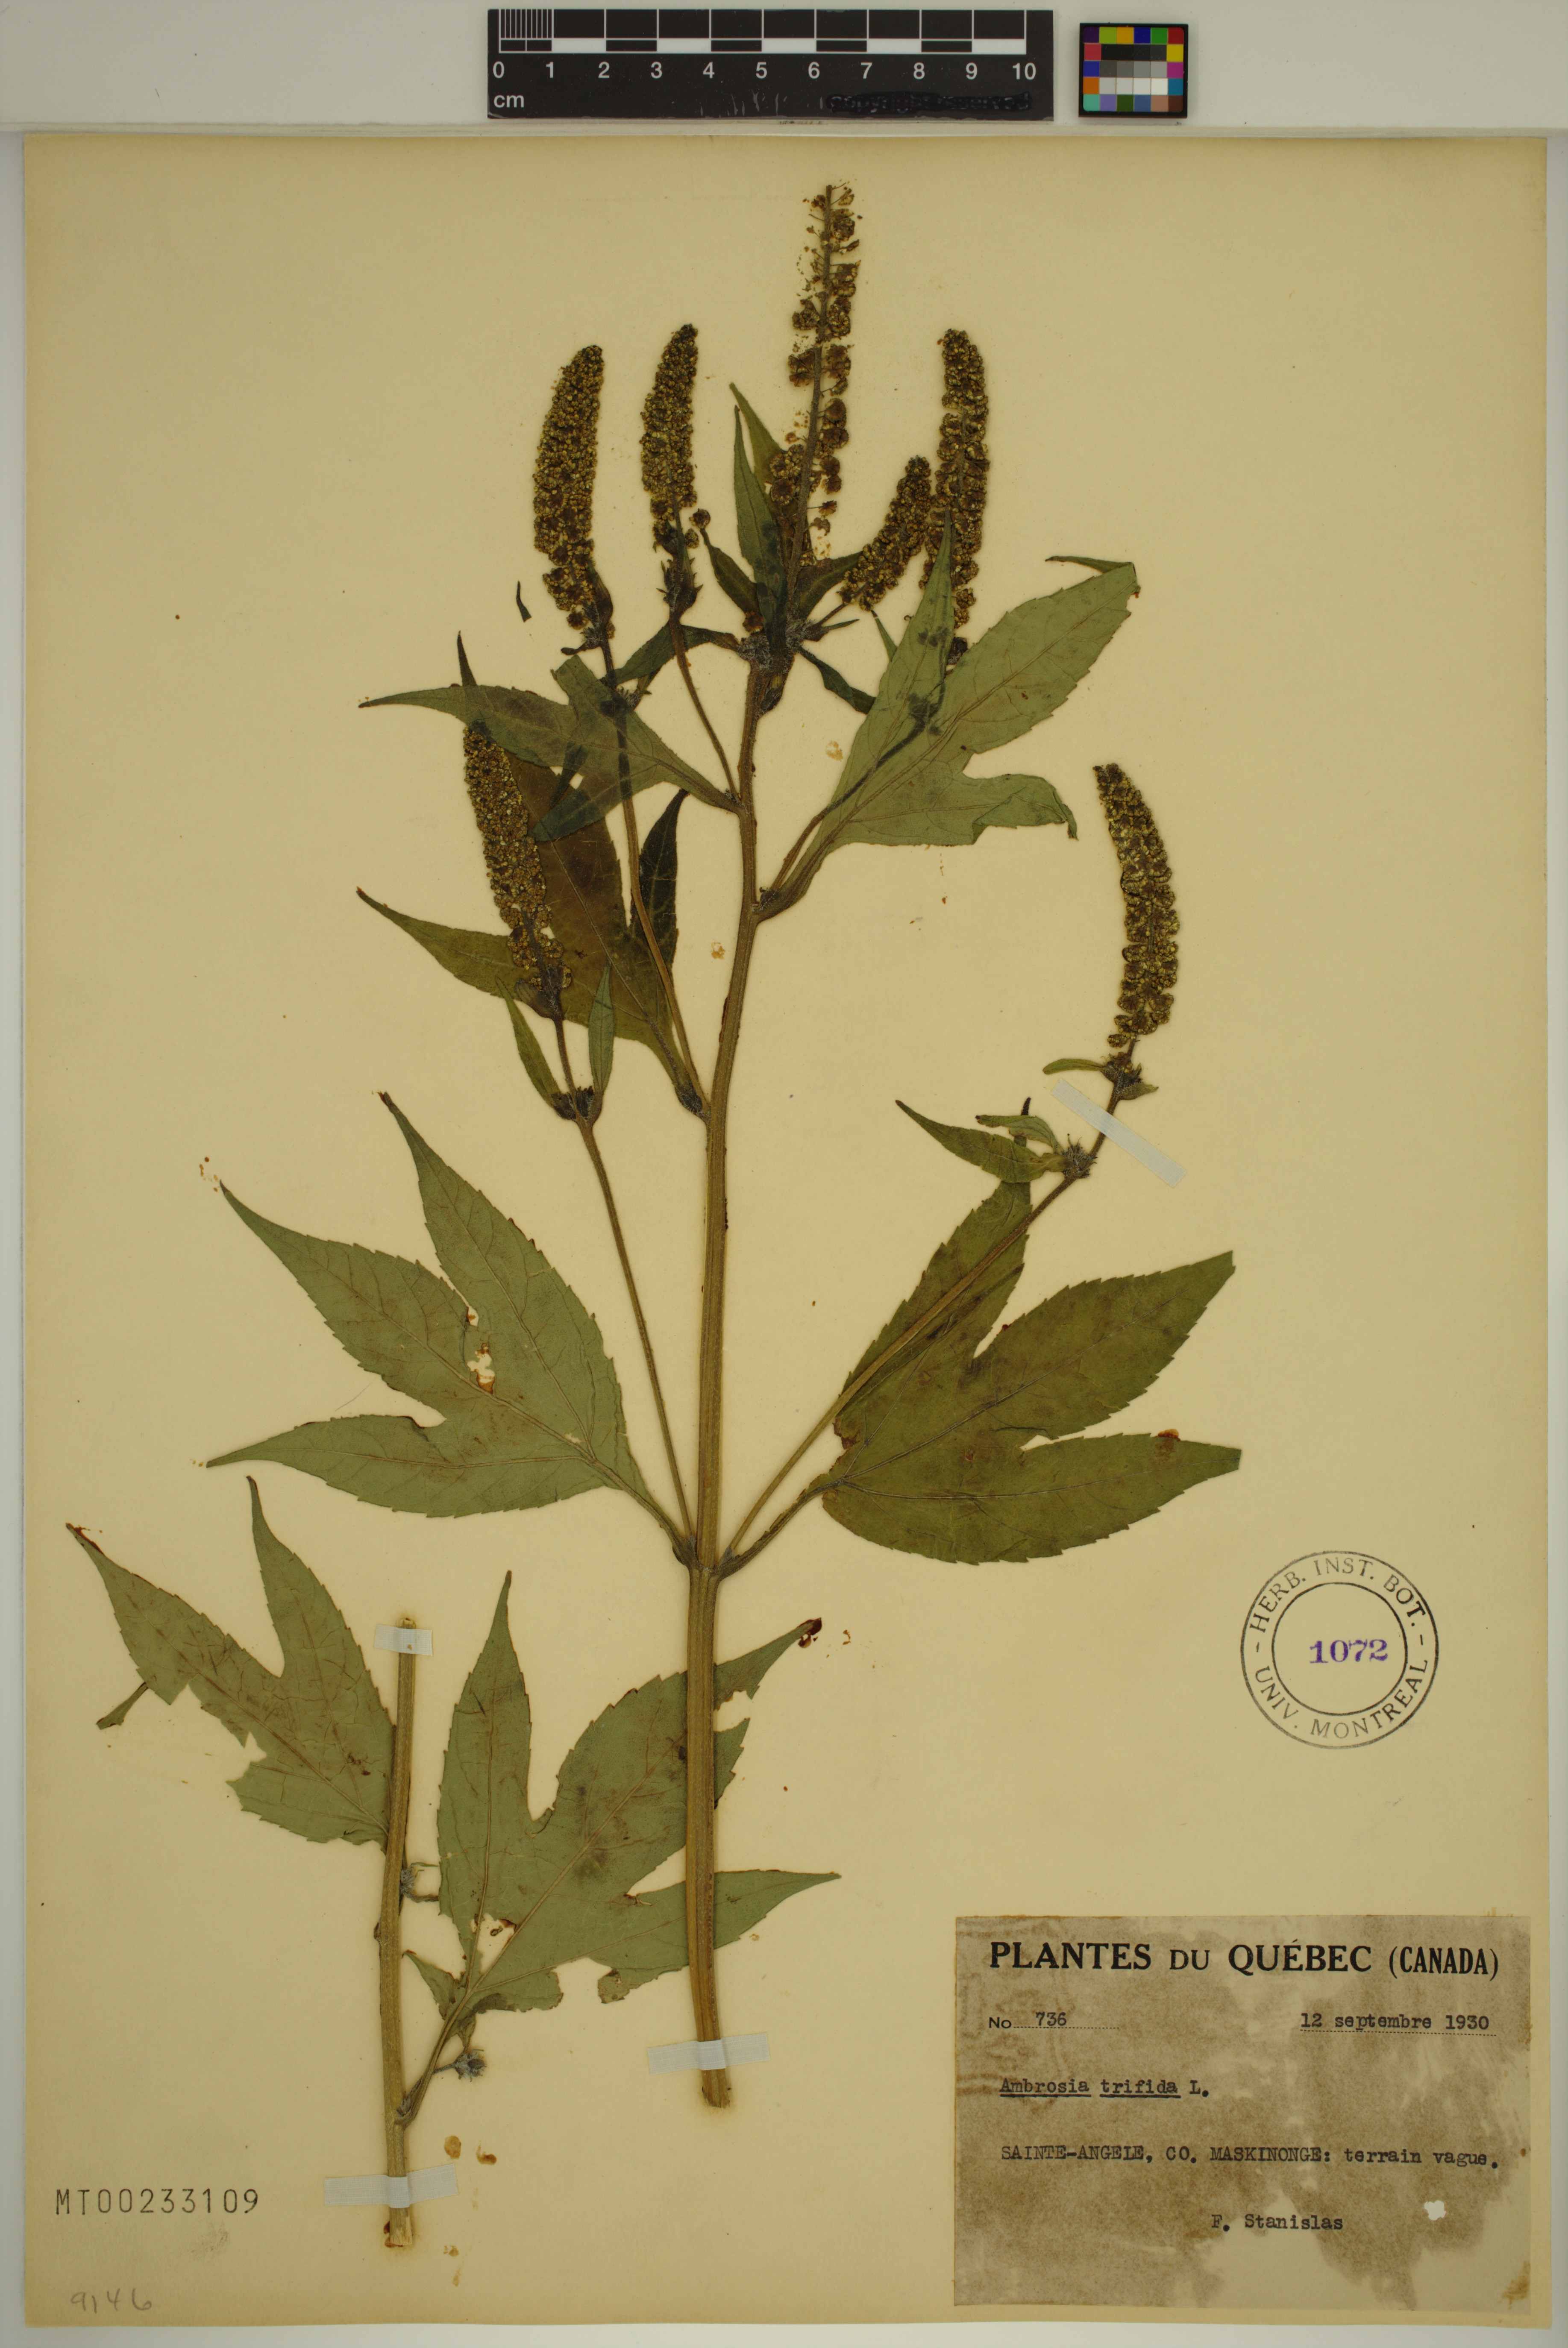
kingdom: Plantae
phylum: Tracheophyta
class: Magnoliopsida
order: Asterales
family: Asteraceae
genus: Ambrosia
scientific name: Ambrosia trifida
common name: Giant ragweed
